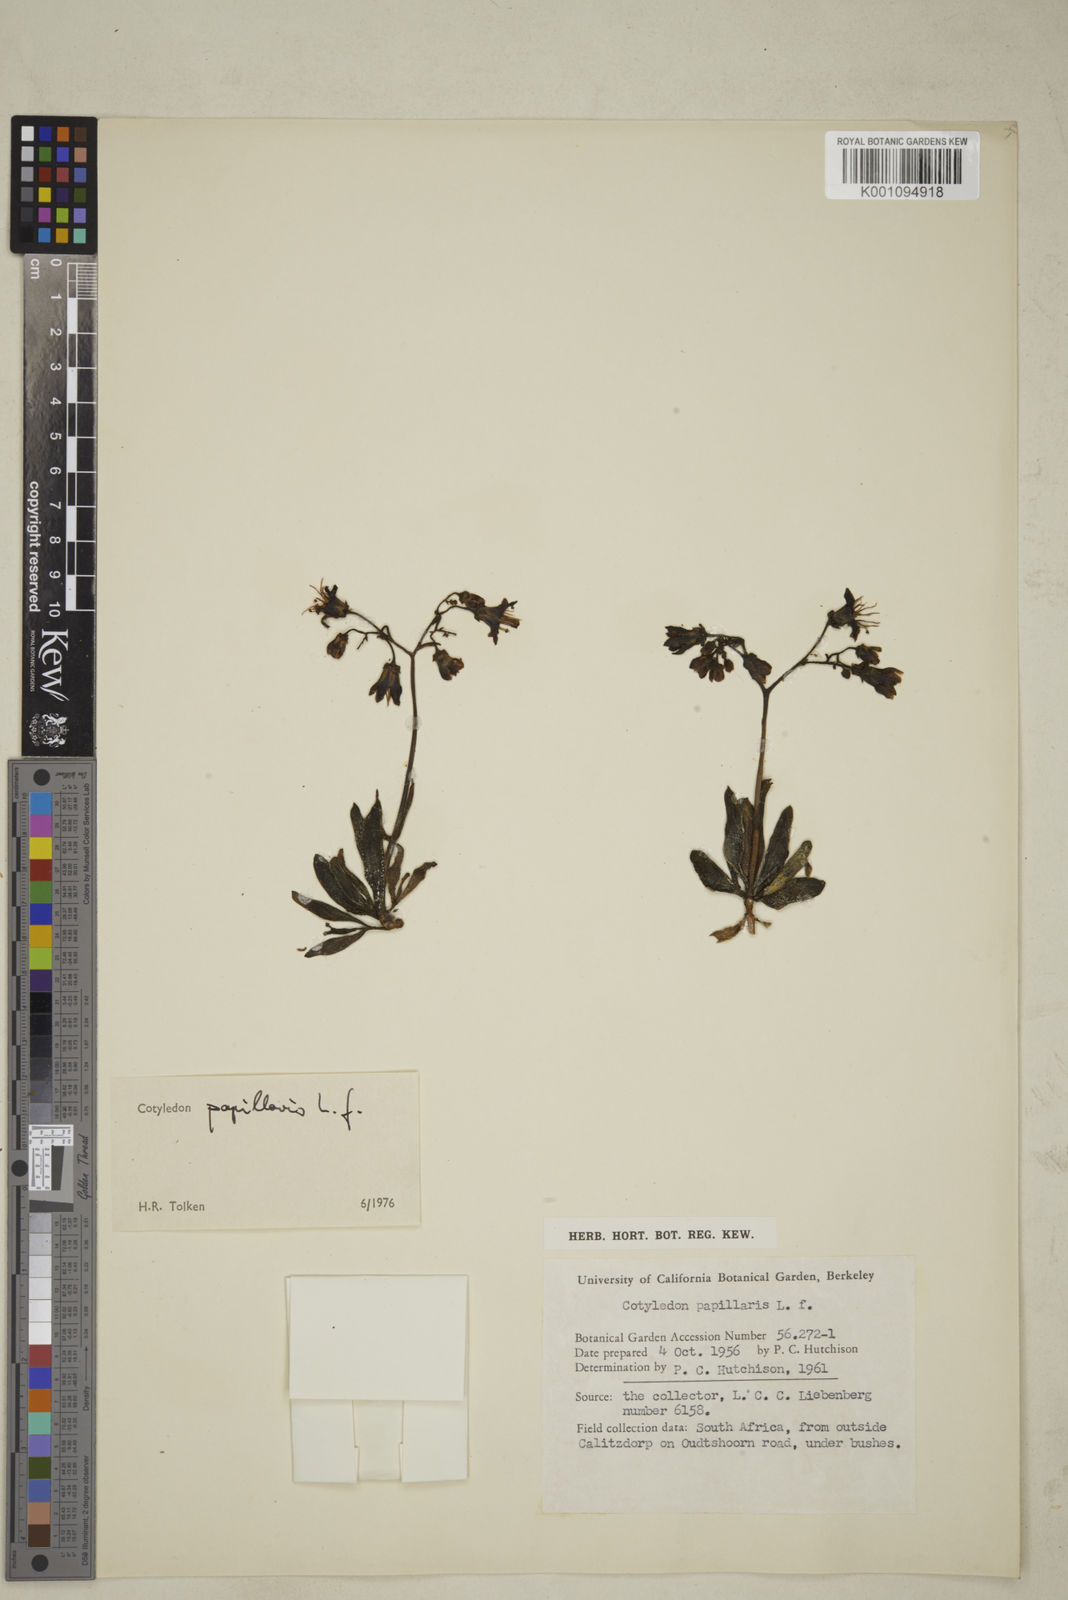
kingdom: Plantae
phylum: Tracheophyta
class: Magnoliopsida
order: Saxifragales
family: Crassulaceae
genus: Cotyledon
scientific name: Cotyledon campanulata
